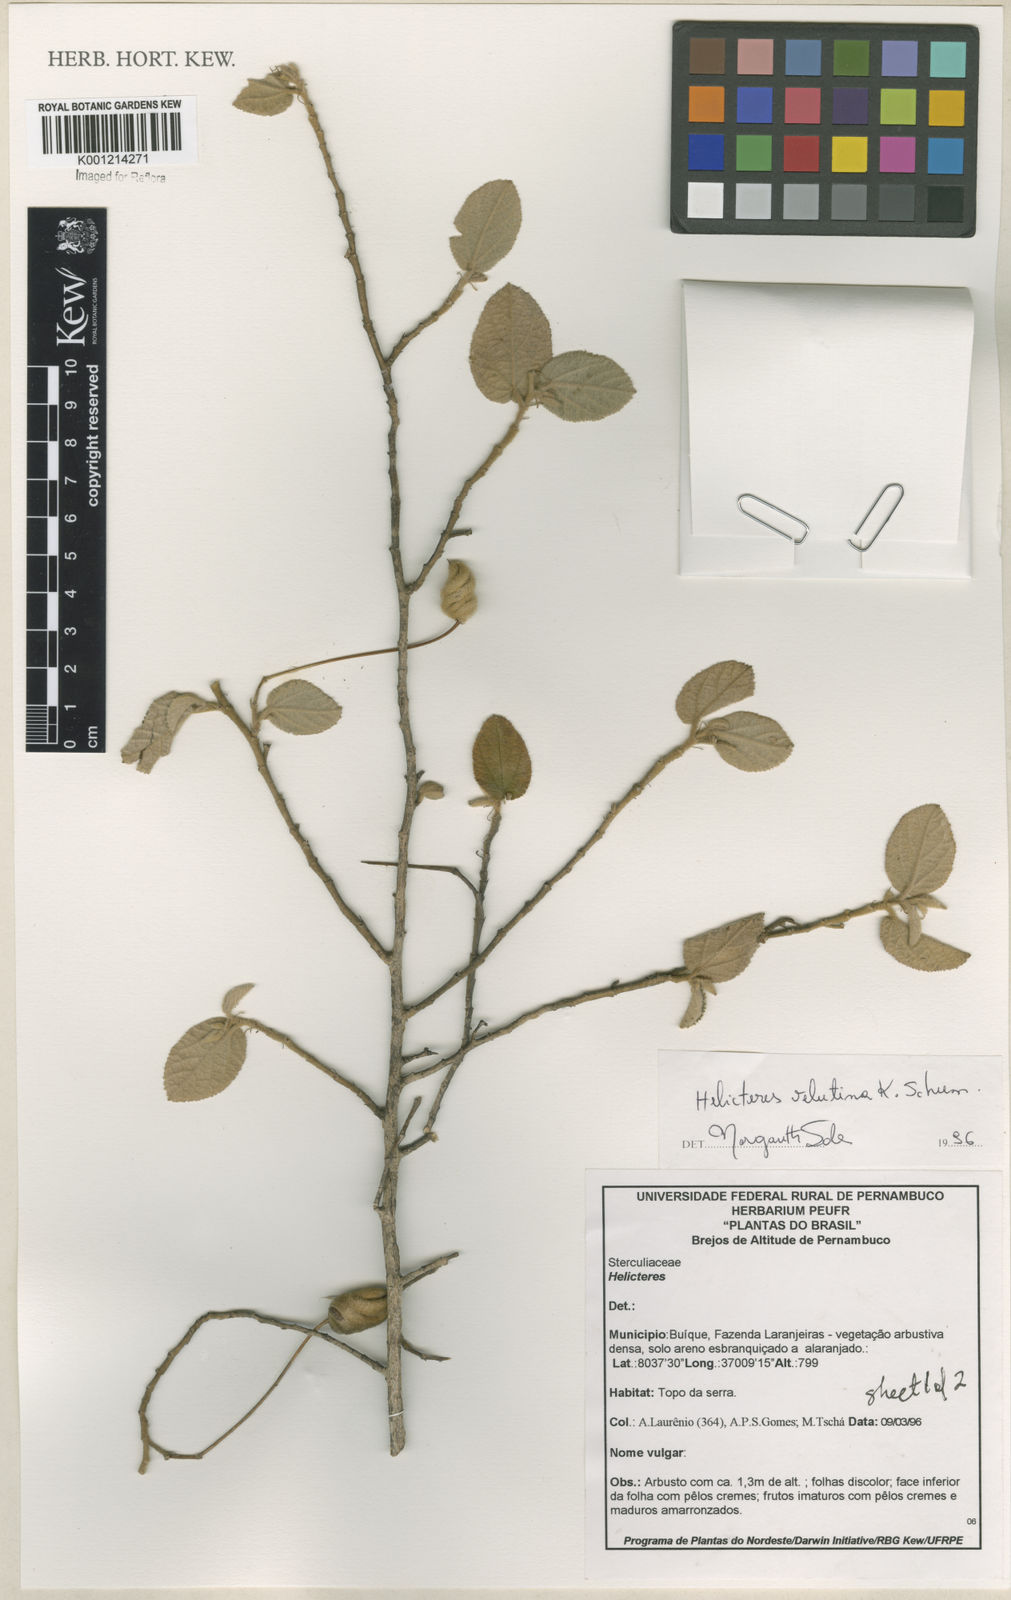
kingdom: Plantae
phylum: Tracheophyta
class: Magnoliopsida
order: Malvales
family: Malvaceae
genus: Helicteres
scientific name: Helicteres velutina
